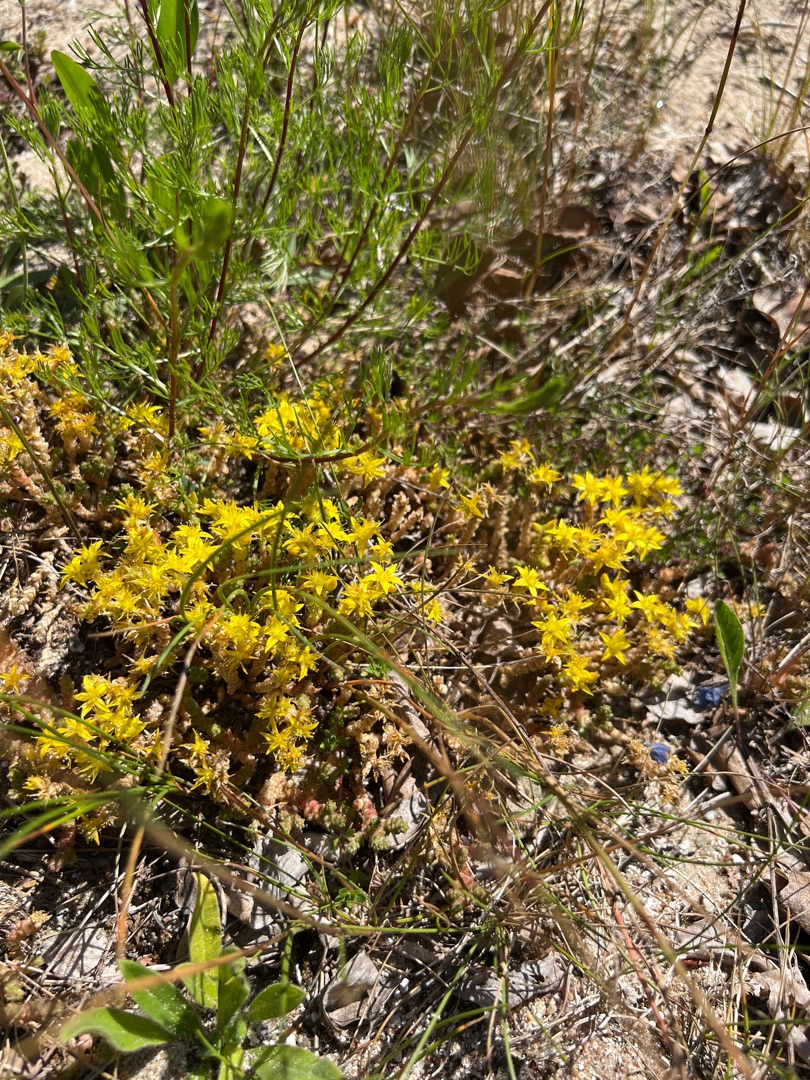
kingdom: Plantae
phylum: Tracheophyta
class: Magnoliopsida
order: Saxifragales
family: Crassulaceae
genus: Sedum
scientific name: Sedum acre
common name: Bidende stenurt
